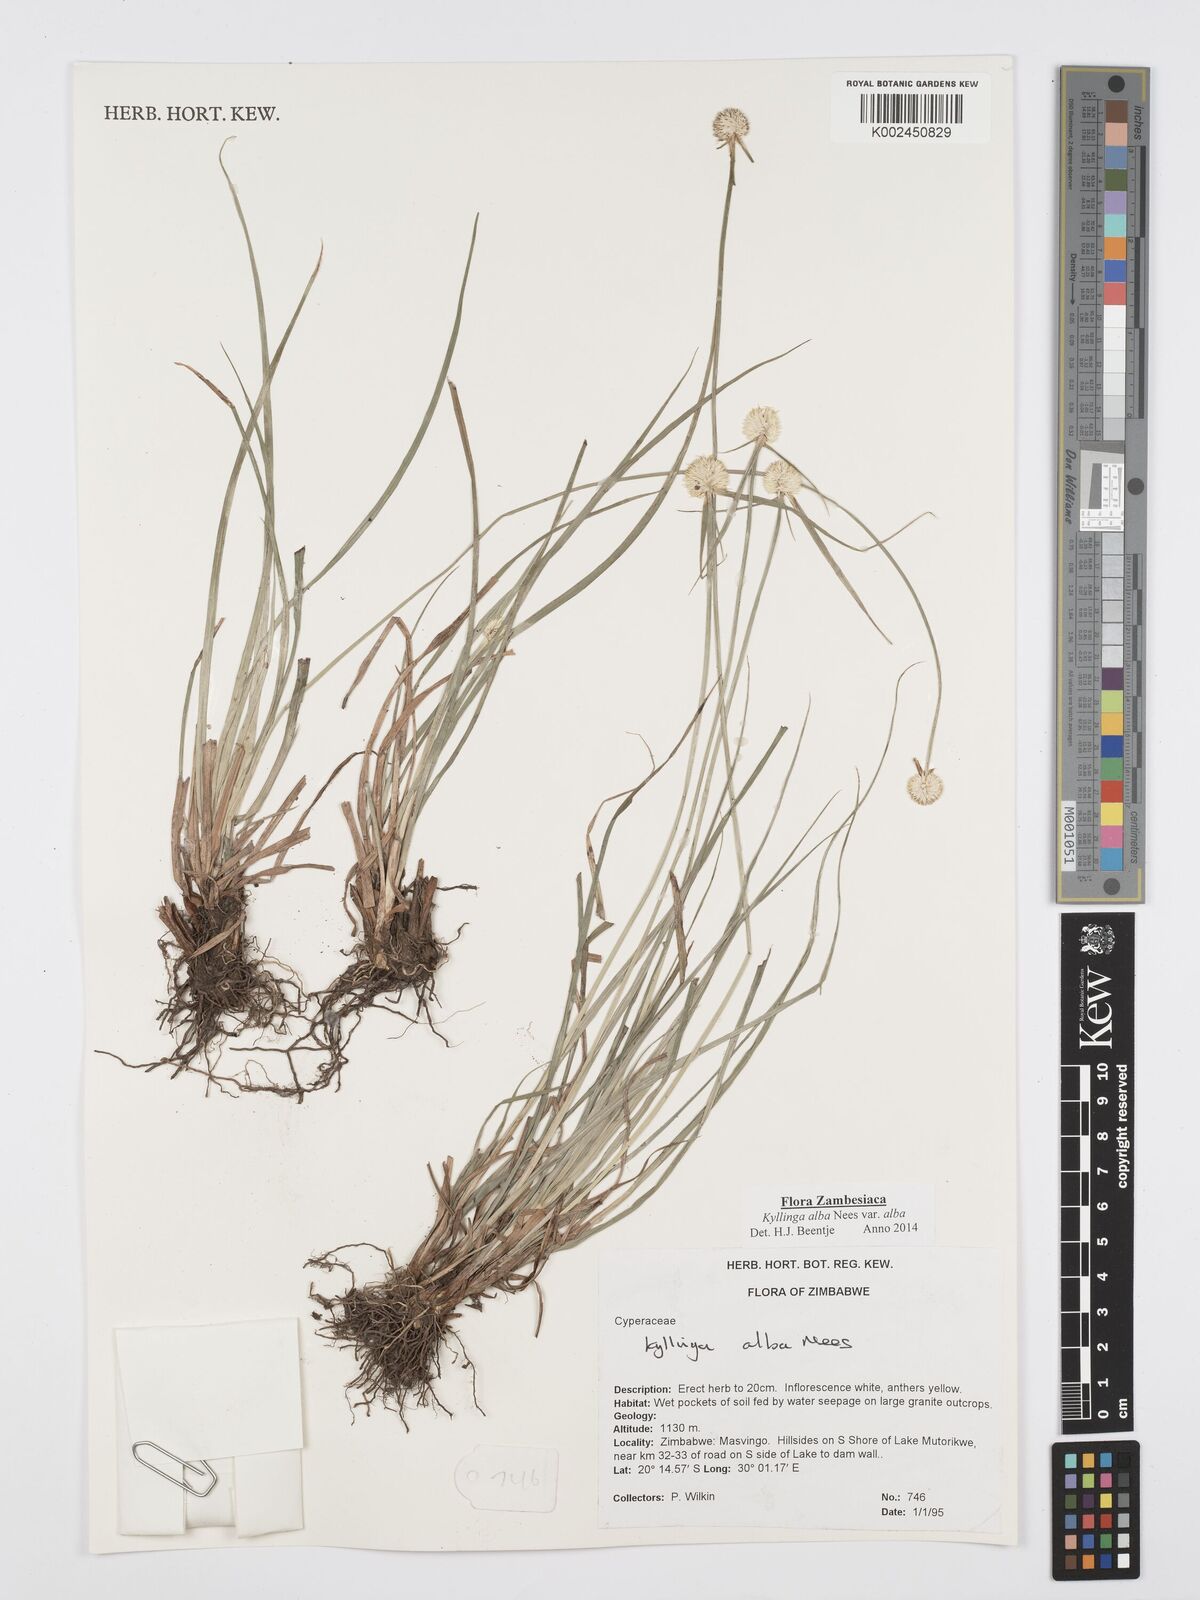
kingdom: Plantae
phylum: Tracheophyta
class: Liliopsida
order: Poales
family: Cyperaceae
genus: Cyperus
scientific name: Cyperus
